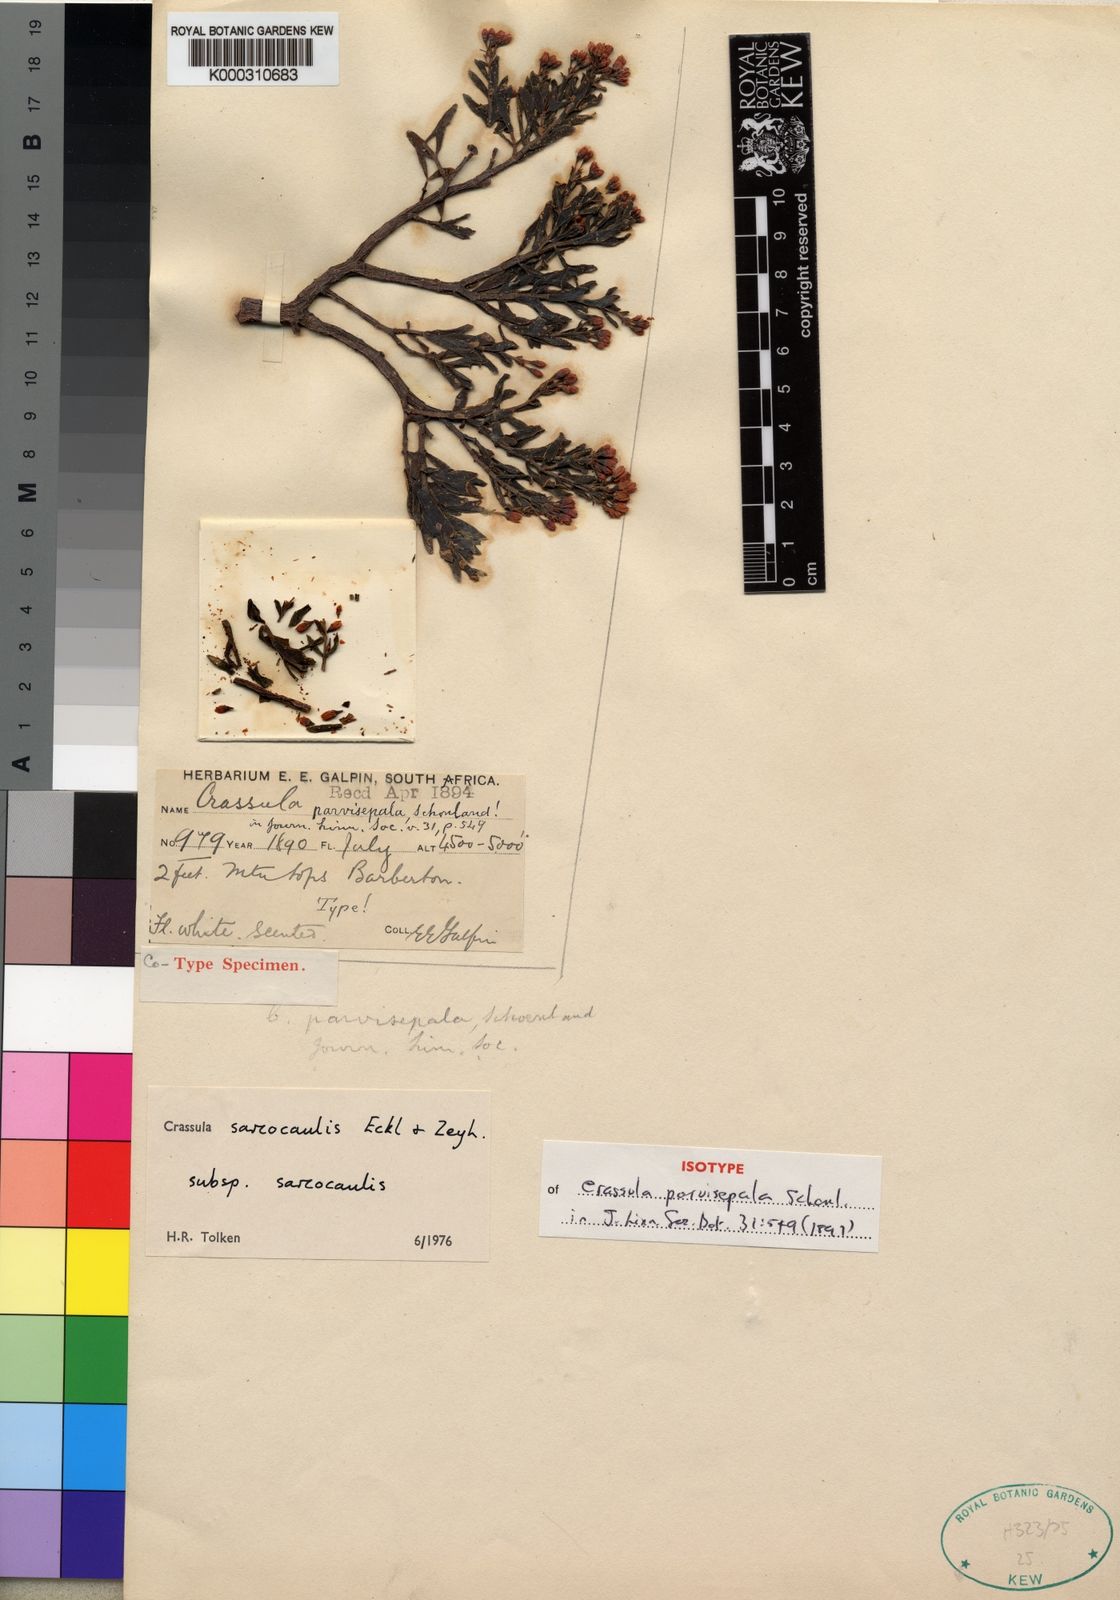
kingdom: Plantae
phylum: Tracheophyta
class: Magnoliopsida
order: Saxifragales
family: Crassulaceae
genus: Crassula
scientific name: Crassula sarcocaulis
